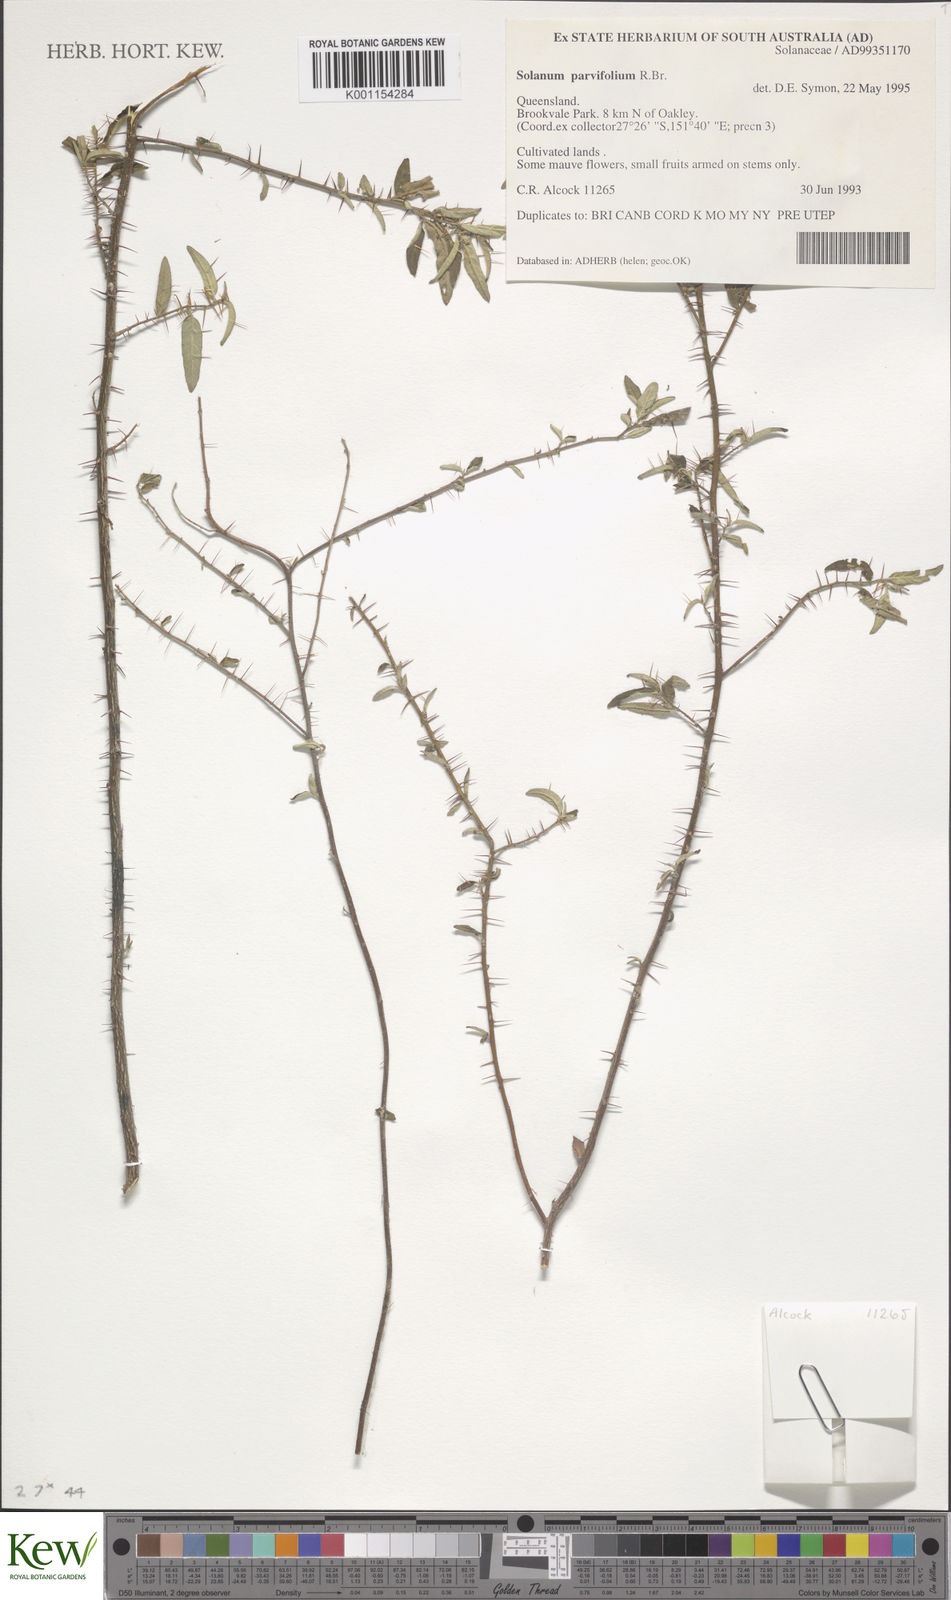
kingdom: Plantae
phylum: Tracheophyta
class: Magnoliopsida
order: Solanales
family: Solanaceae
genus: Solanum
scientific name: Solanum parvifolium
